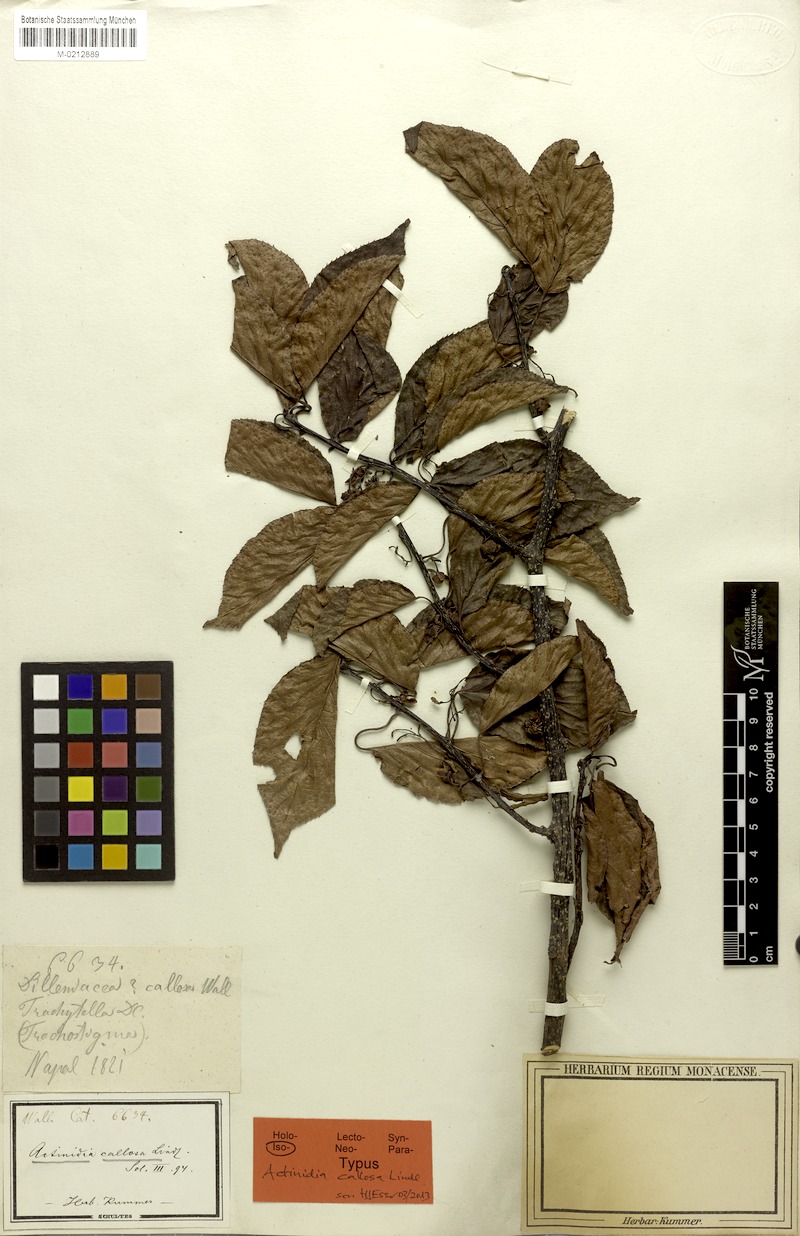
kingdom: Plantae
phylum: Tracheophyta
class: Magnoliopsida
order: Ericales
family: Actinidiaceae
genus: Actinidia
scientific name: Actinidia callosa
